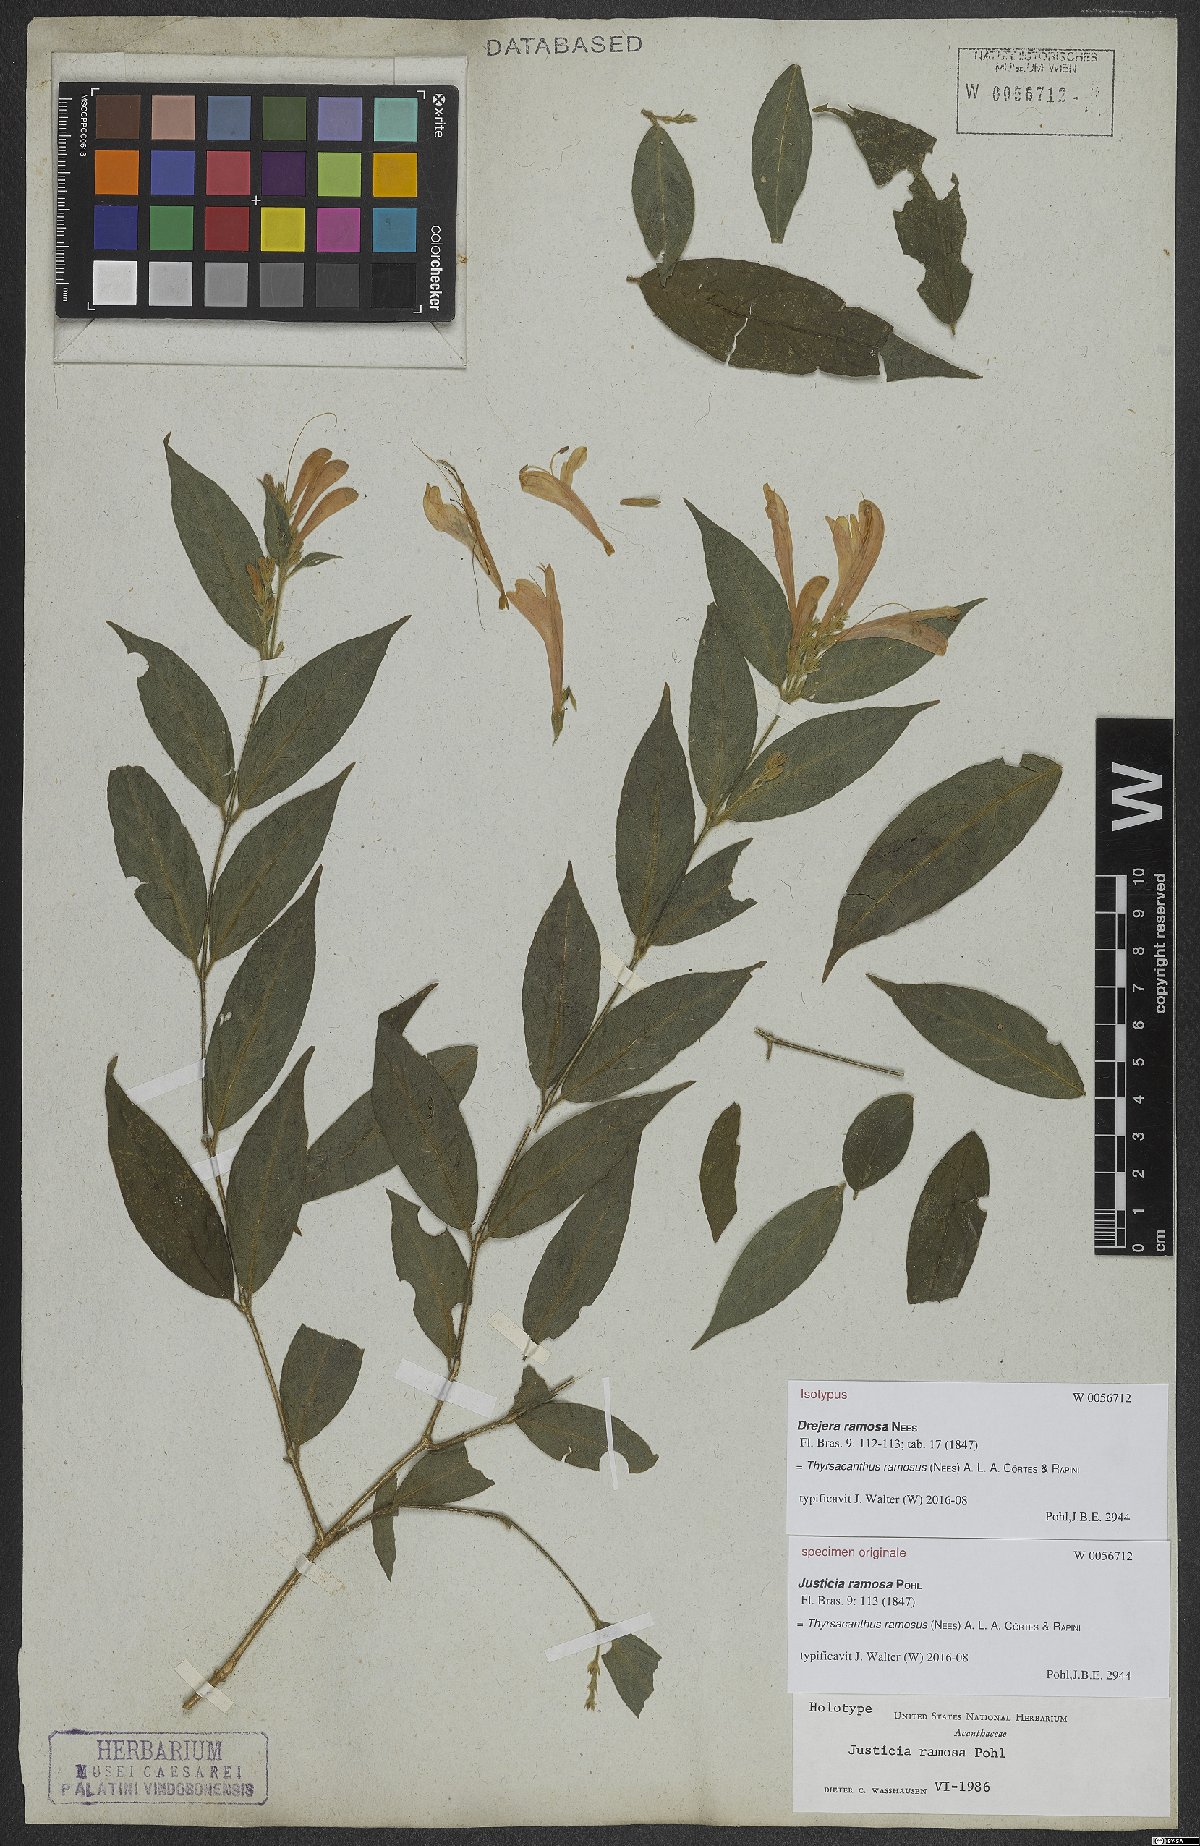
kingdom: Plantae
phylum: Tracheophyta
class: Magnoliopsida
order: Lamiales
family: Acanthaceae
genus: Thyrsacanthus
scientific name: Thyrsacanthus ramosus
